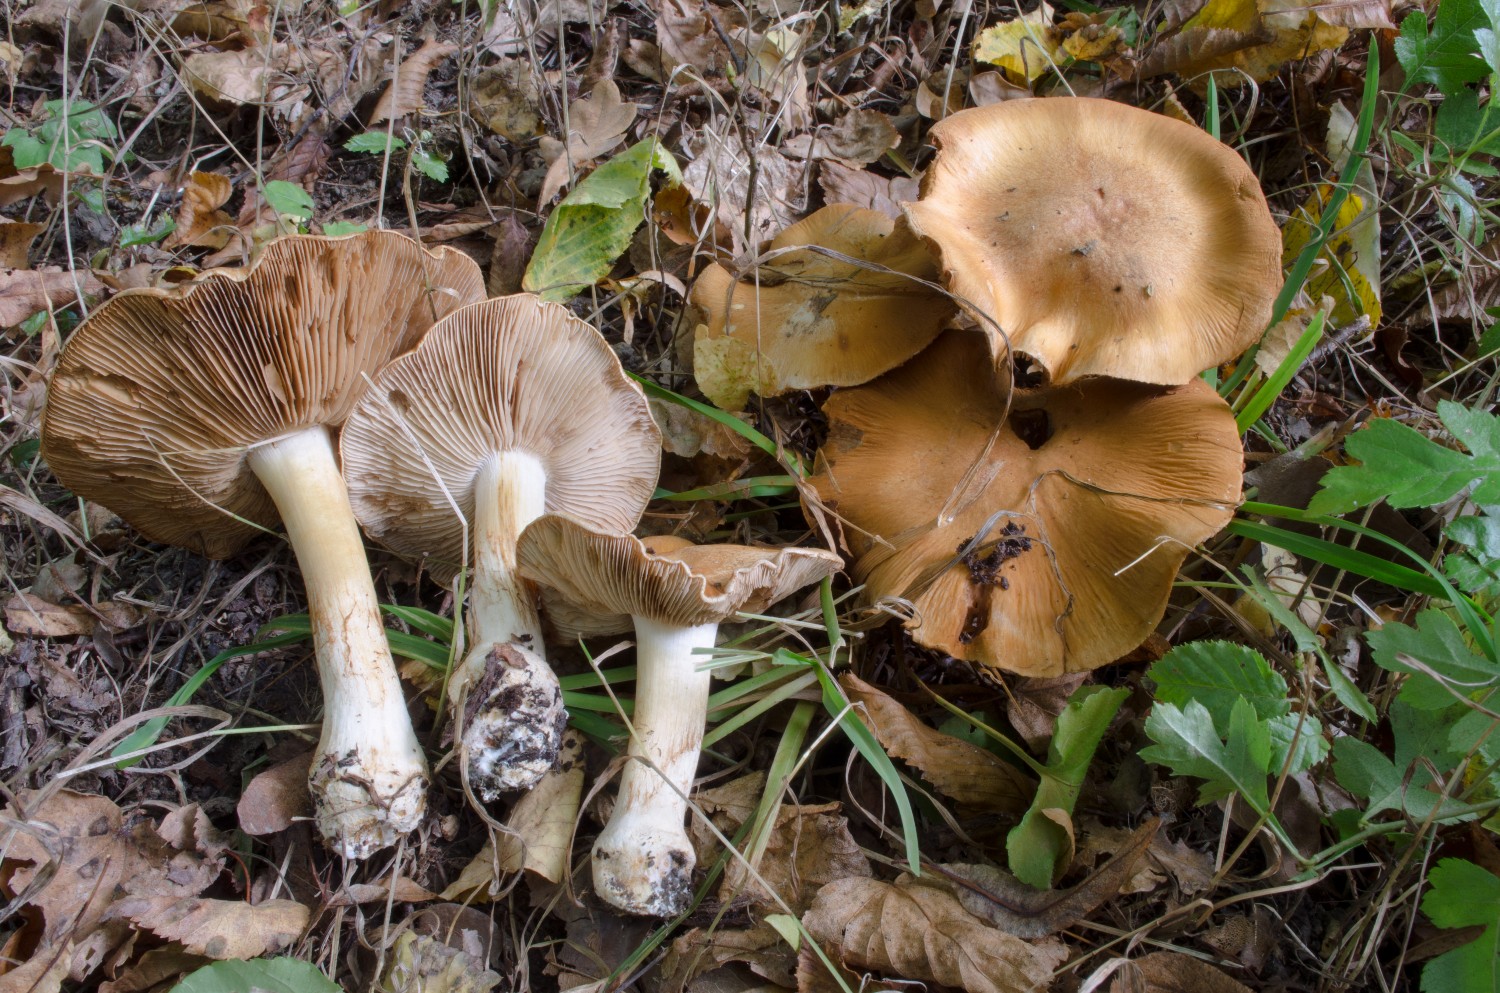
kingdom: Fungi
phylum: Basidiomycota
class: Agaricomycetes
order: Agaricales
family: Cortinariaceae
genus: Phlegmacium
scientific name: Phlegmacium subdecolorans
